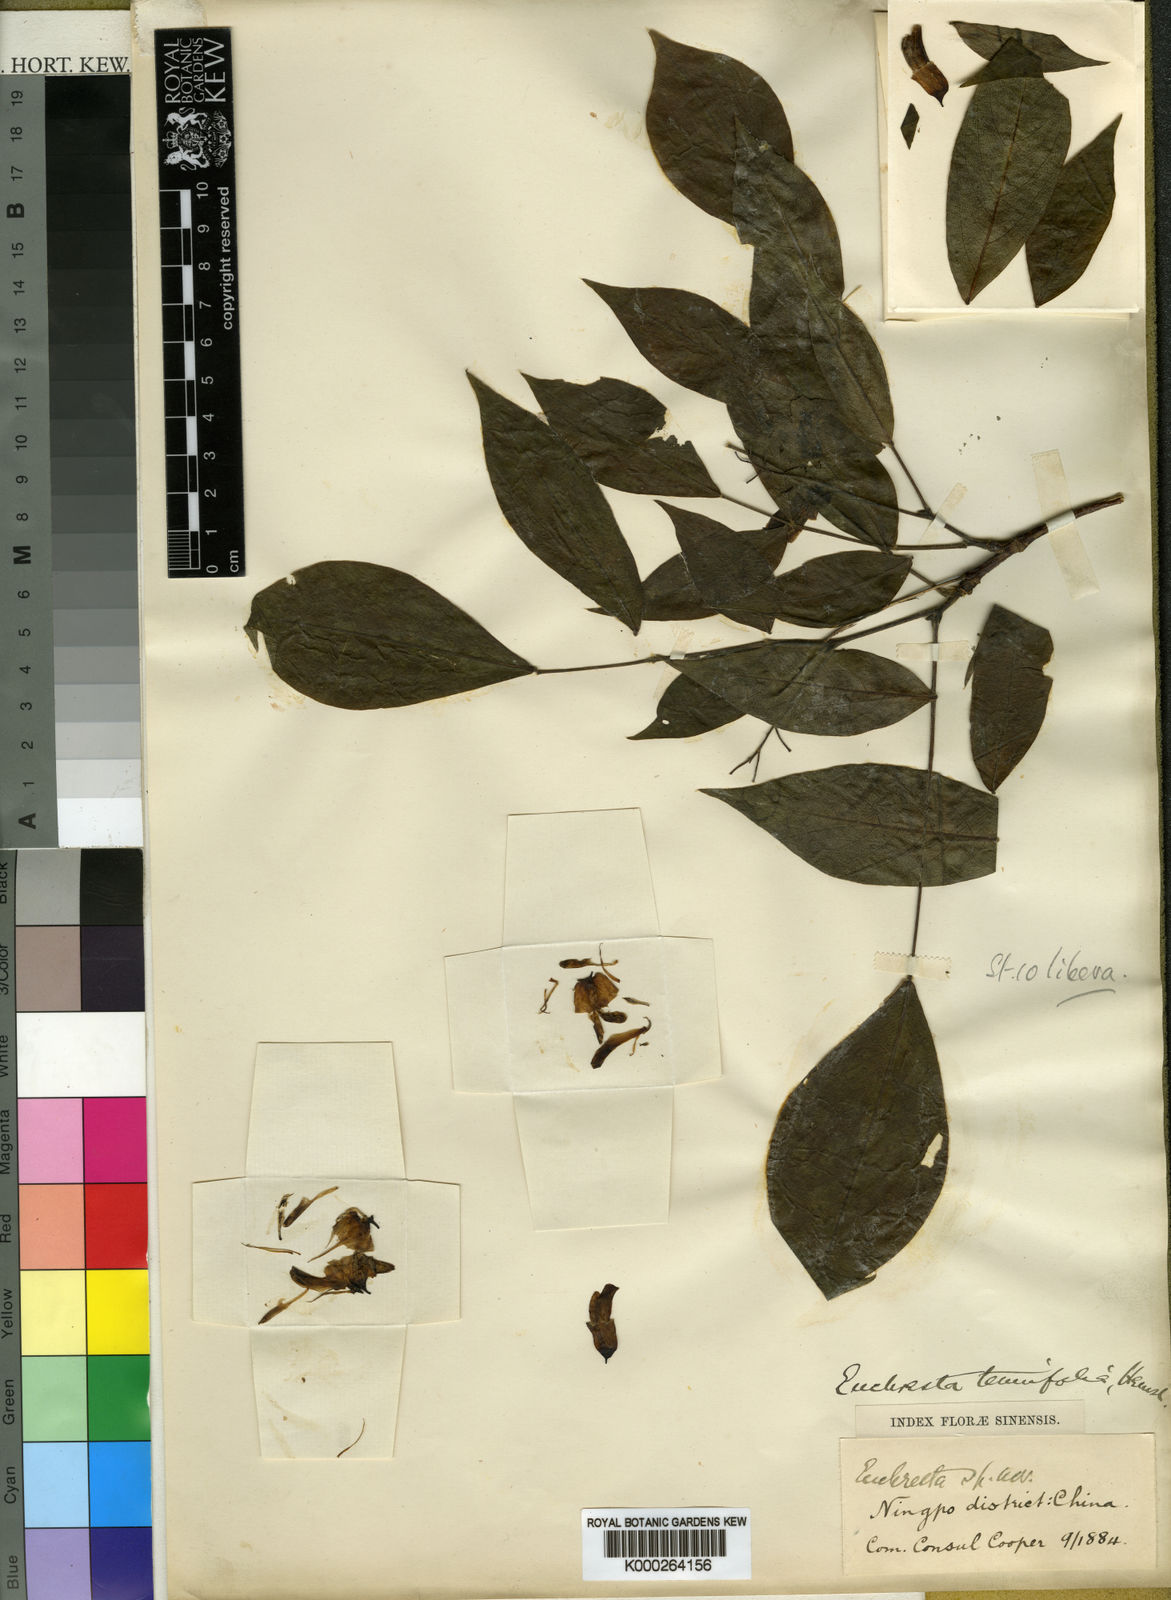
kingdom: Plantae
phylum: Tracheophyta
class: Magnoliopsida
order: Fabales
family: Fabaceae
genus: Maackia
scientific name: Maackia tenuifolia
